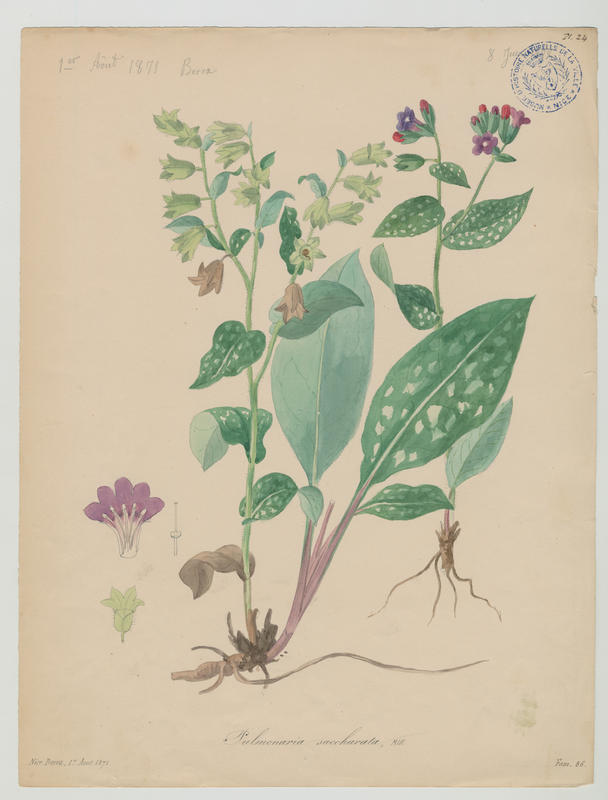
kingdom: Plantae
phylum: Tracheophyta
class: Magnoliopsida
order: Boraginales
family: Boraginaceae
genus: Pulmonaria
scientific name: Pulmonaria saccharata
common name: Bethlehem lungwort
